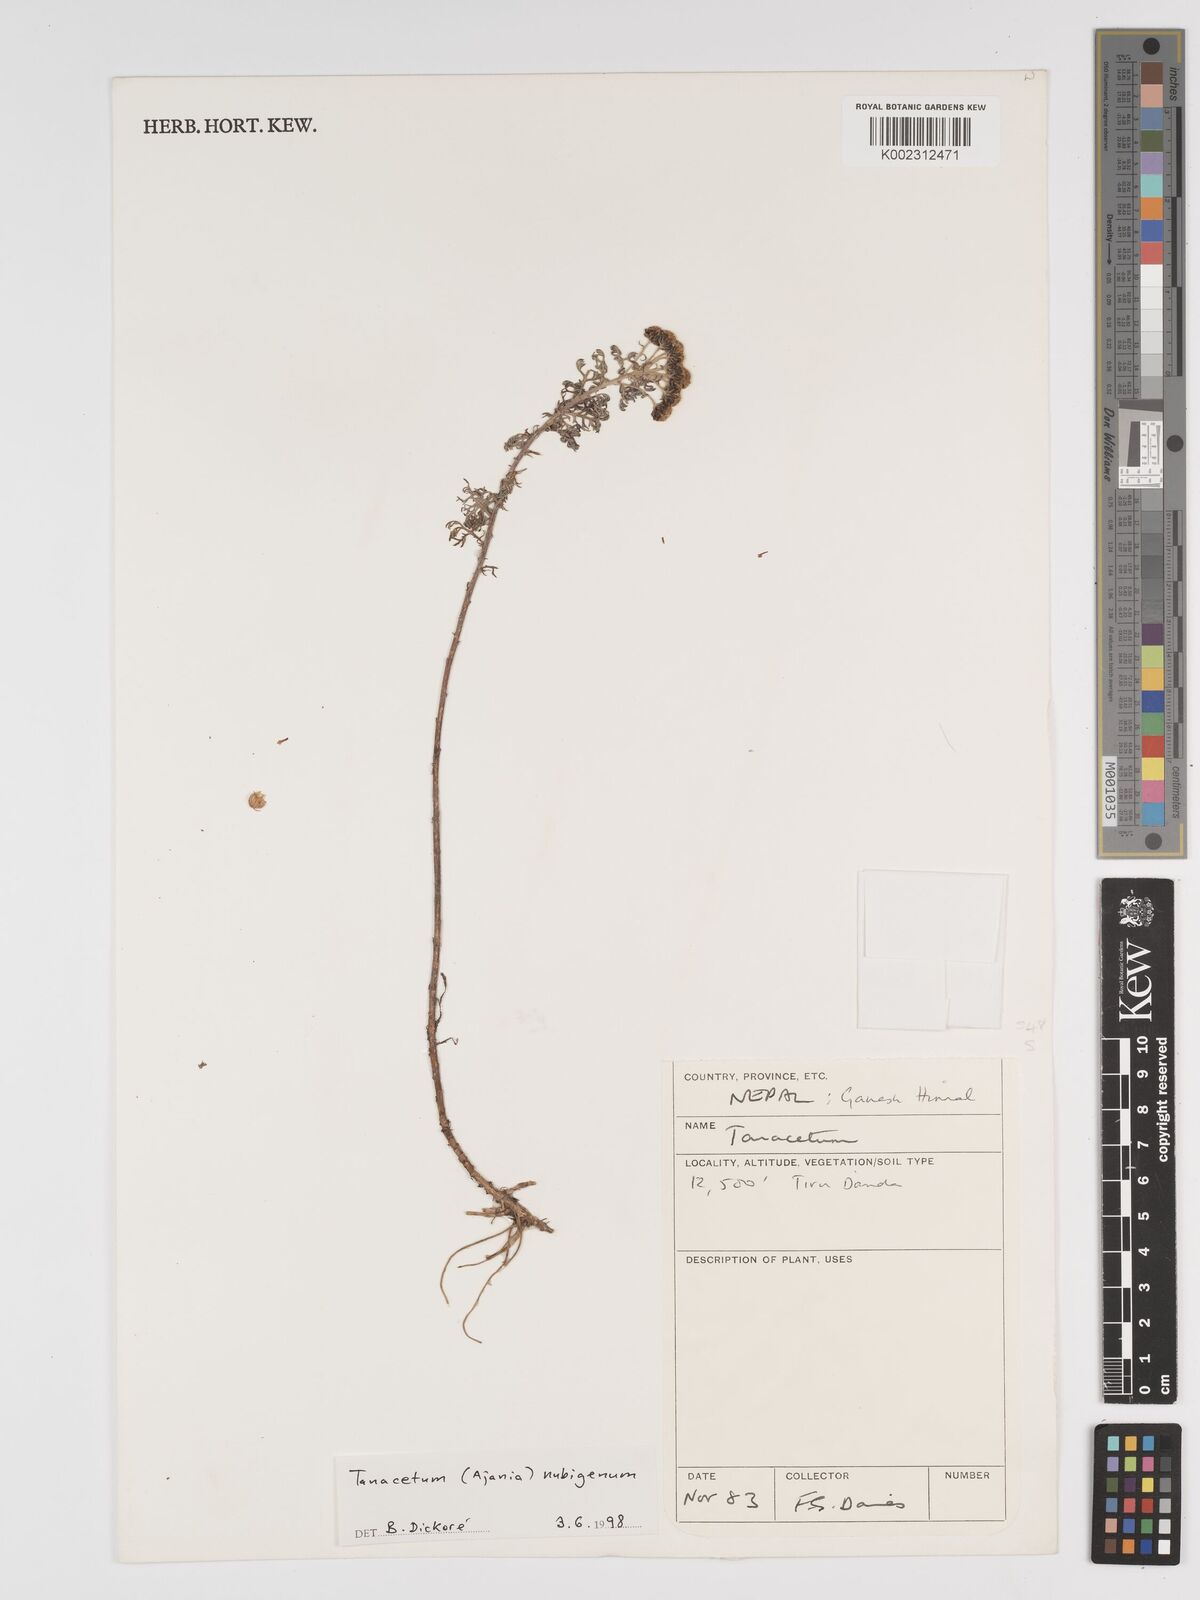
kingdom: Plantae
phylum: Tracheophyta
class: Magnoliopsida
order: Asterales
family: Asteraceae
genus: Tanacetum
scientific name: Tanacetum
